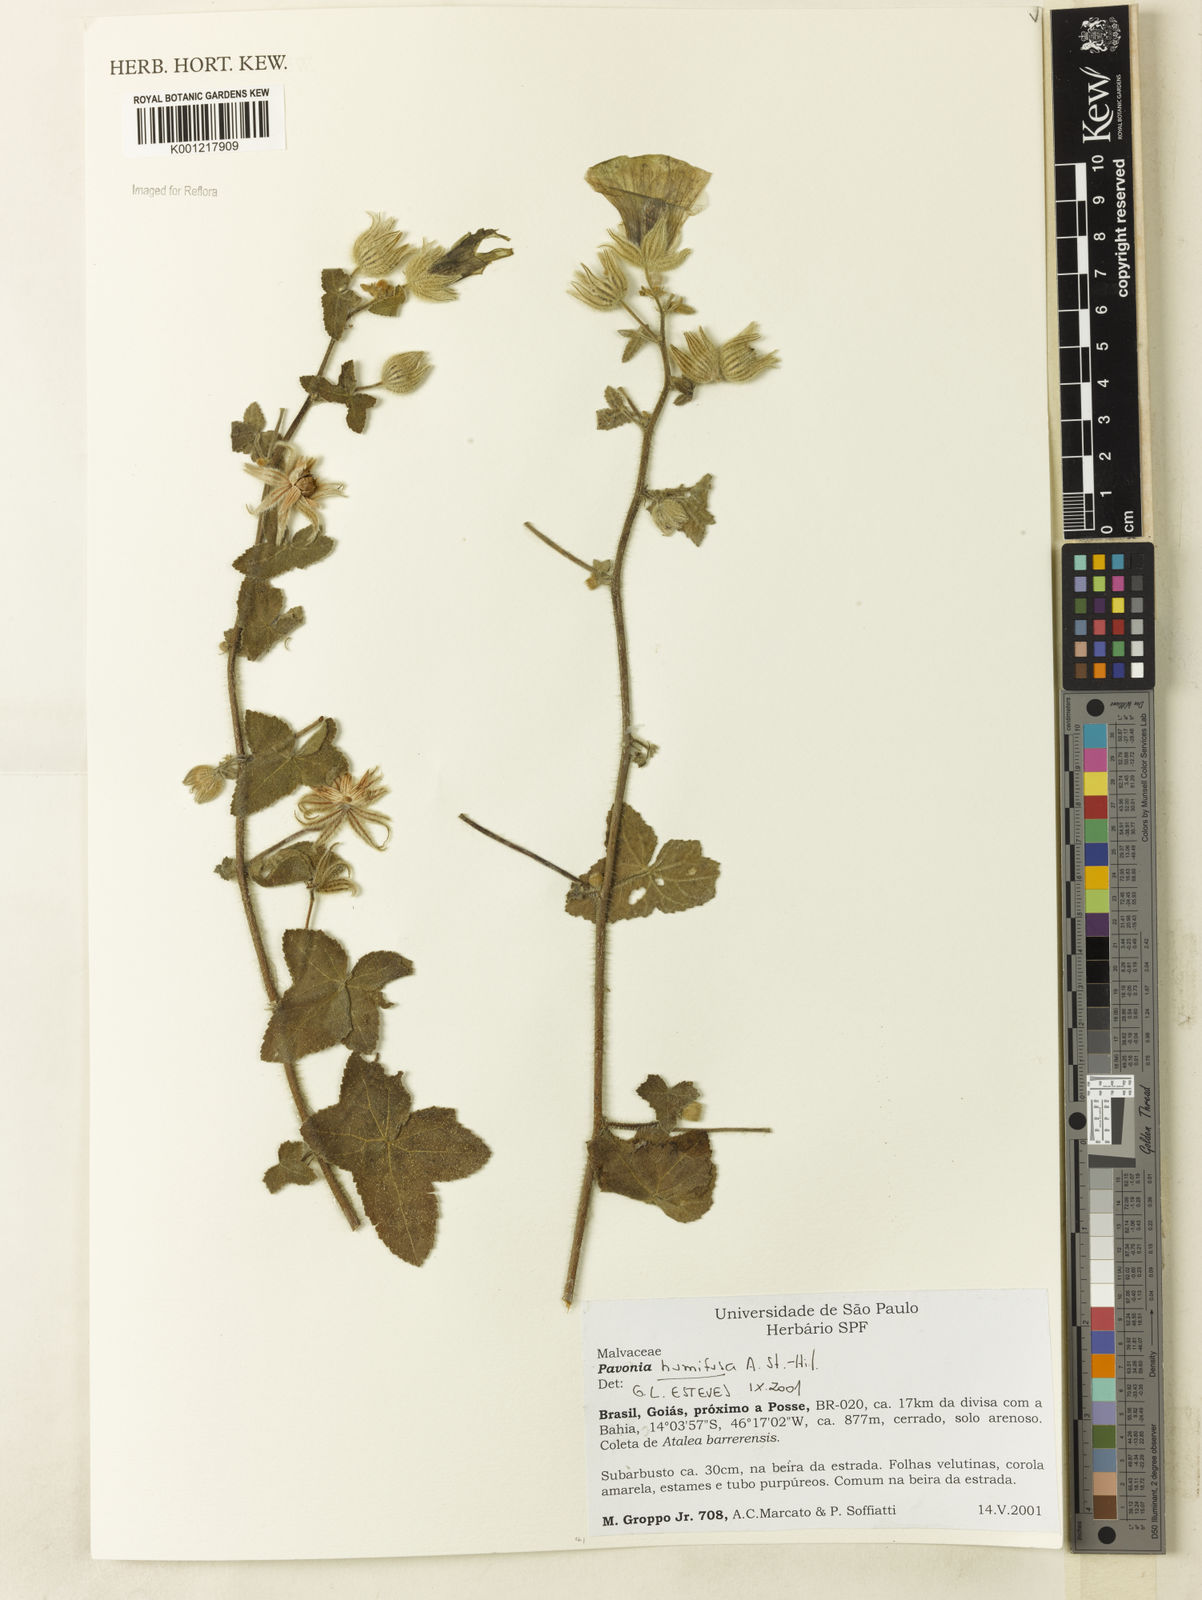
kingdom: Plantae
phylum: Tracheophyta
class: Magnoliopsida
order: Malvales
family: Malvaceae
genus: Pavonia
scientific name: Pavonia humifusa
